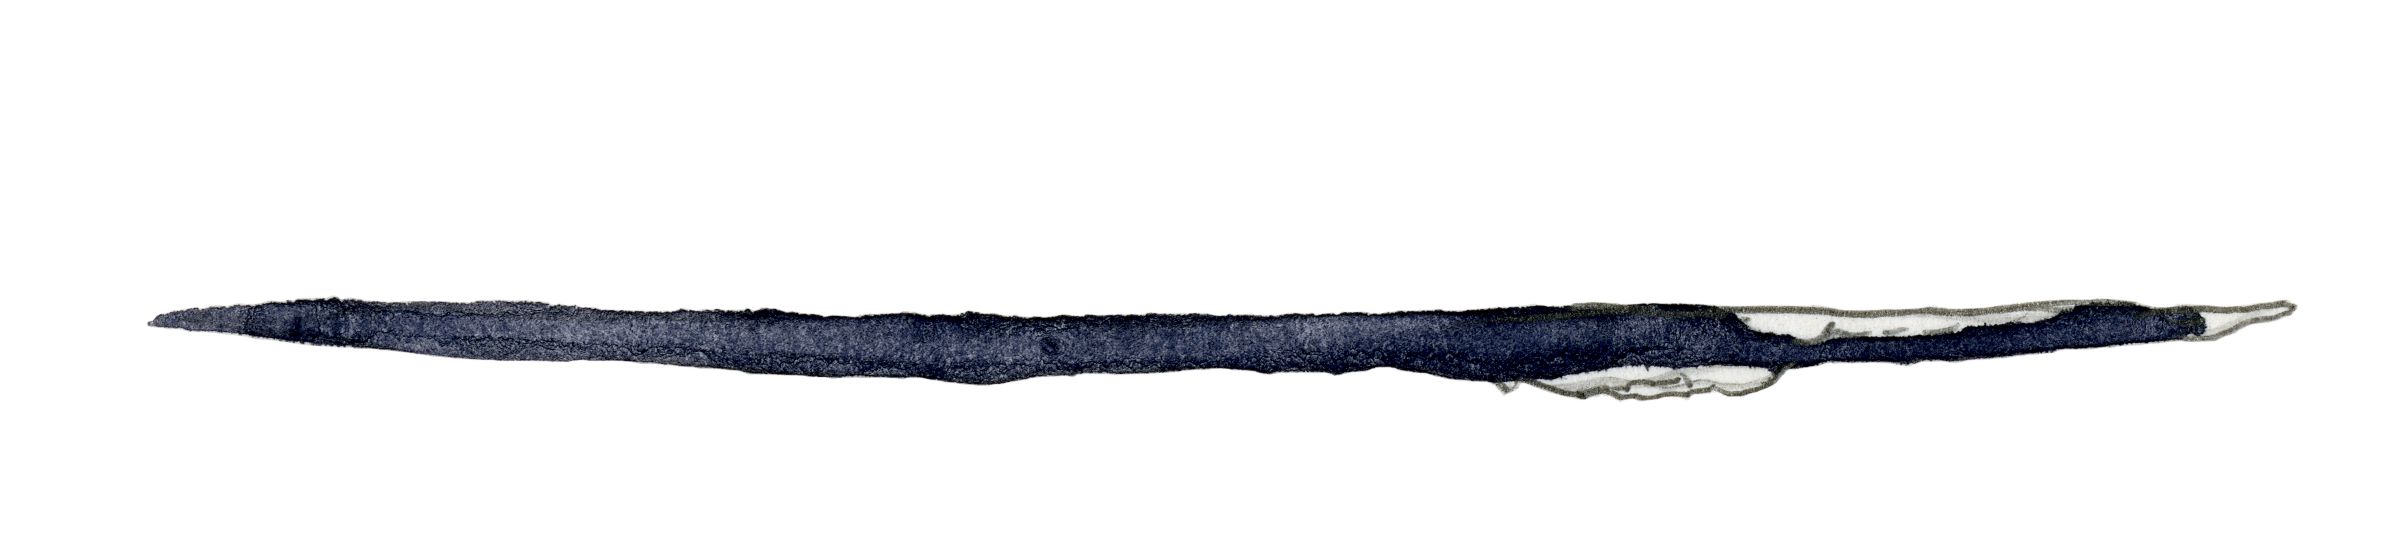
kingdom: Animalia
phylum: Chordata
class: Mammalia
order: Cetacea
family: Balaenidae
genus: Eubalaena
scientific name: Eubalaena australis
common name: Southern right whale
